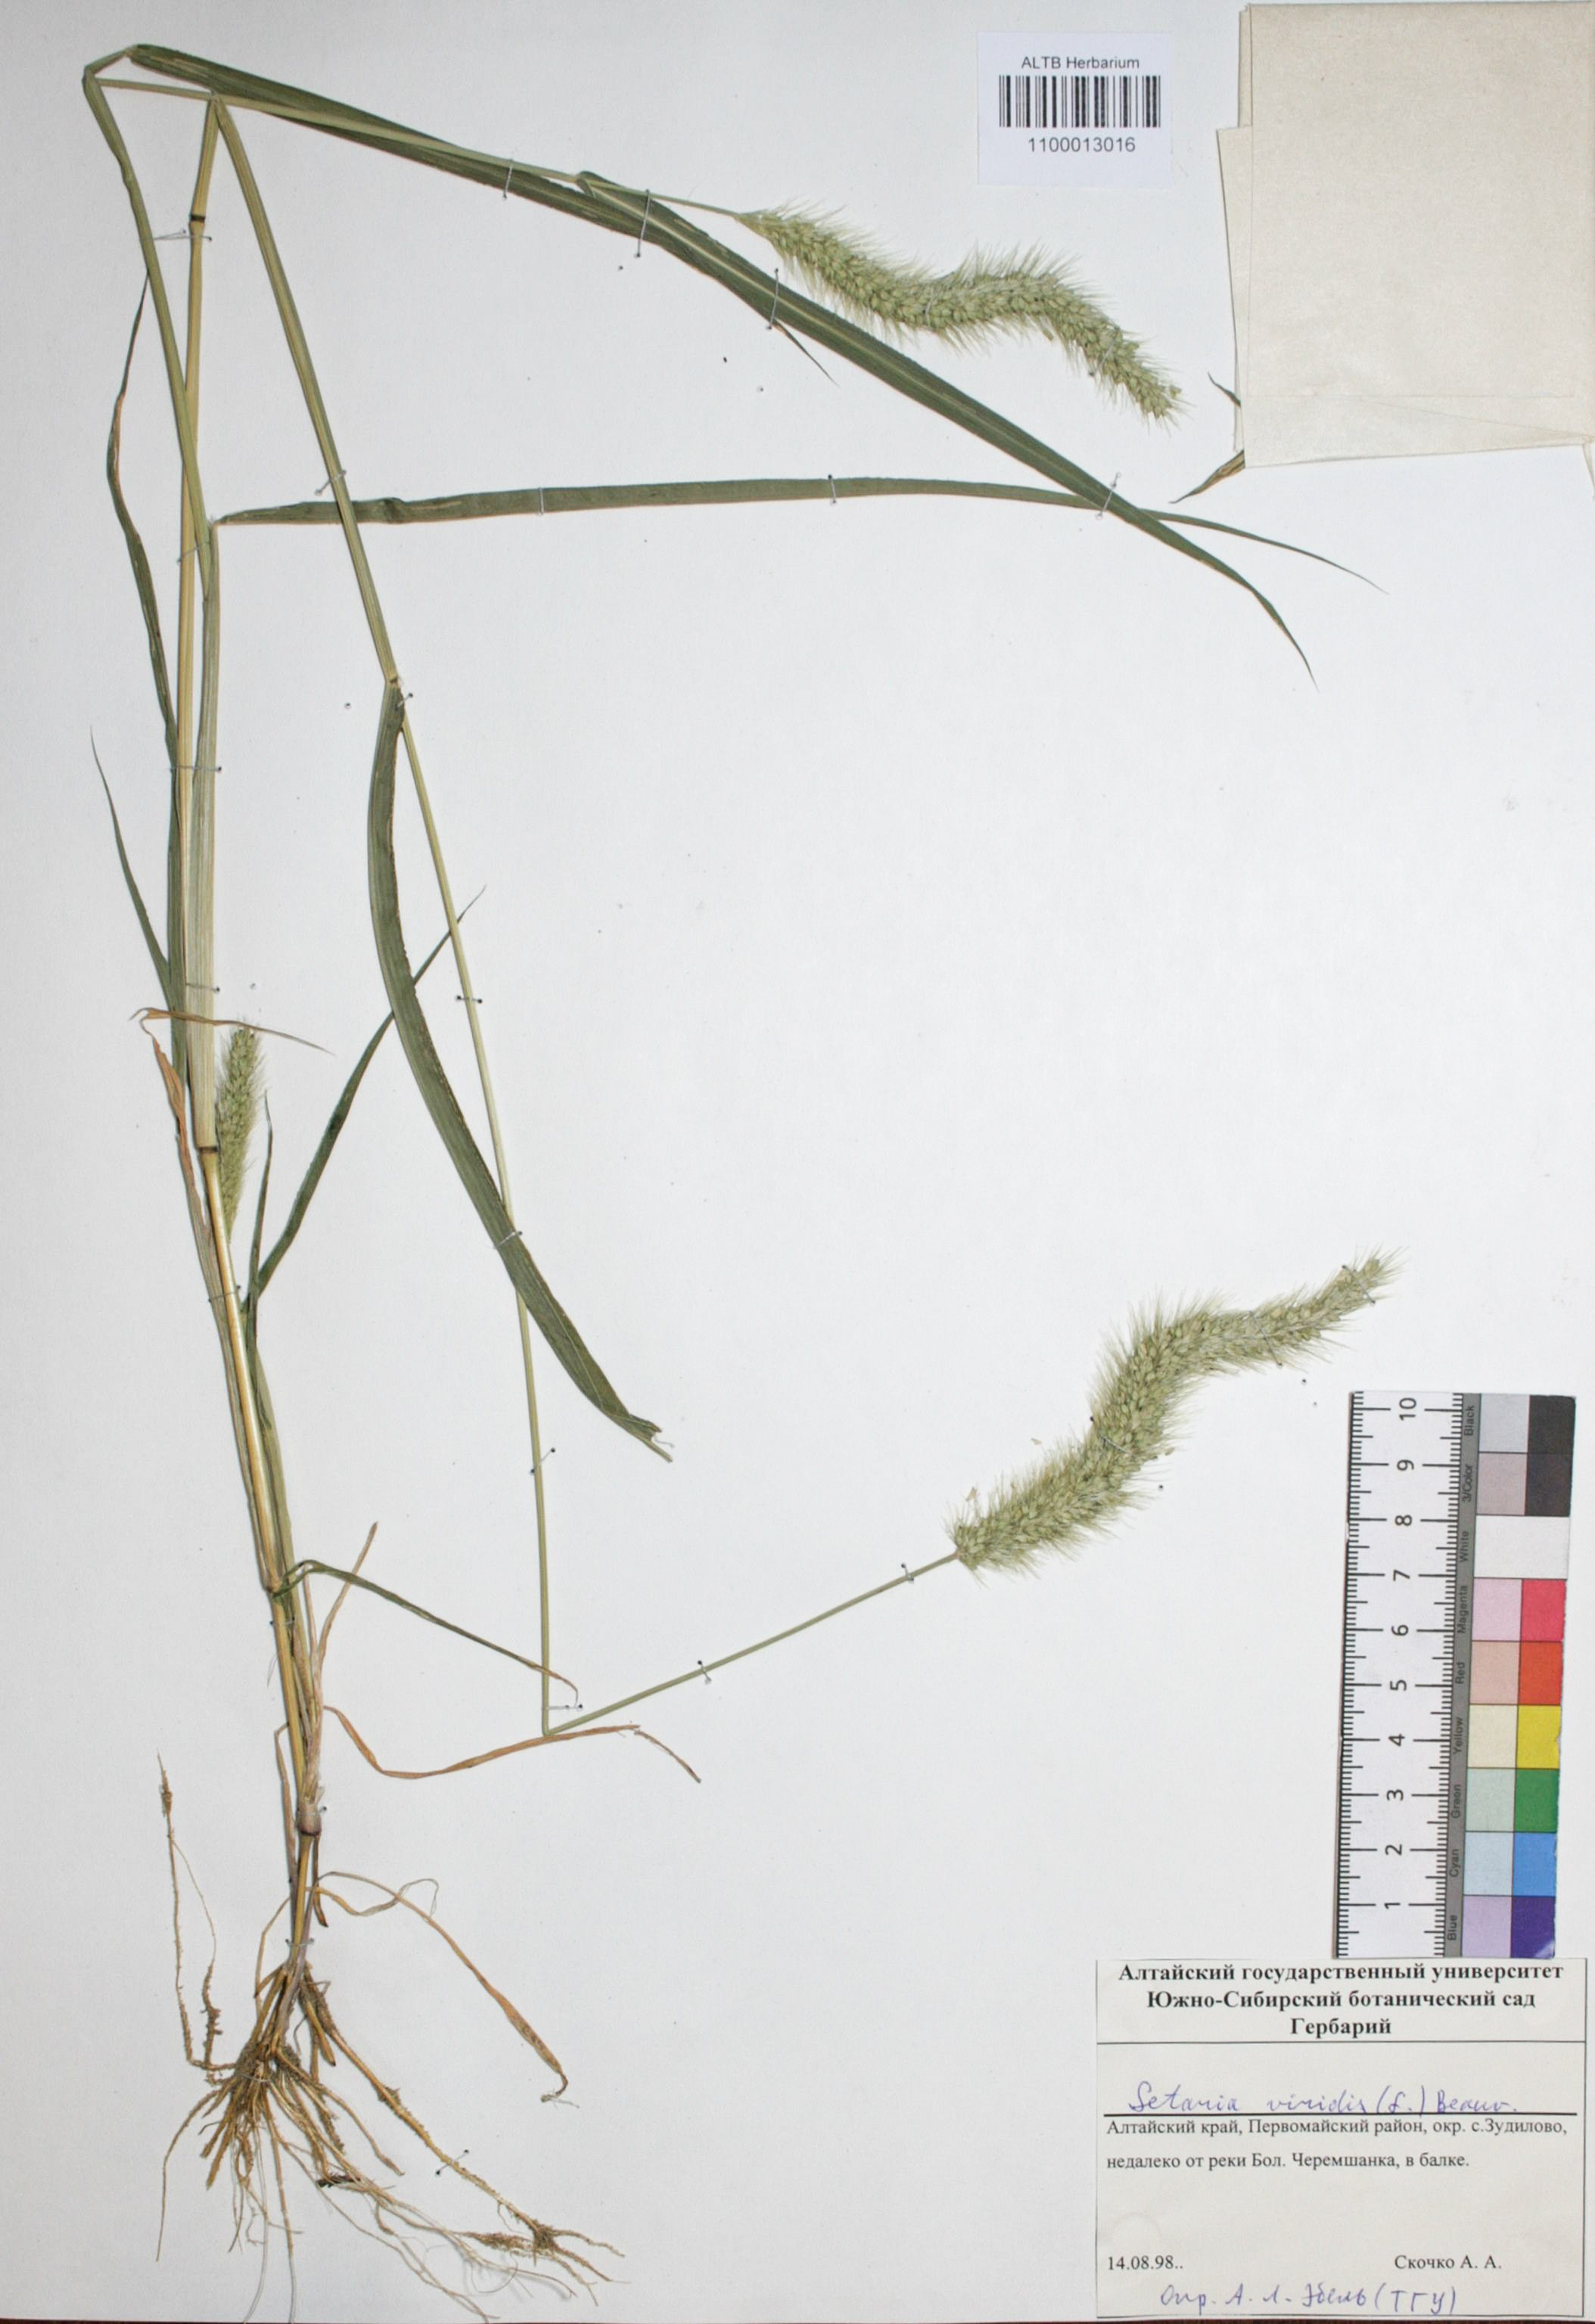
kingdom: Plantae
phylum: Tracheophyta
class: Liliopsida
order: Poales
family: Poaceae
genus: Setaria
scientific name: Setaria viridis
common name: Green bristlegrass
